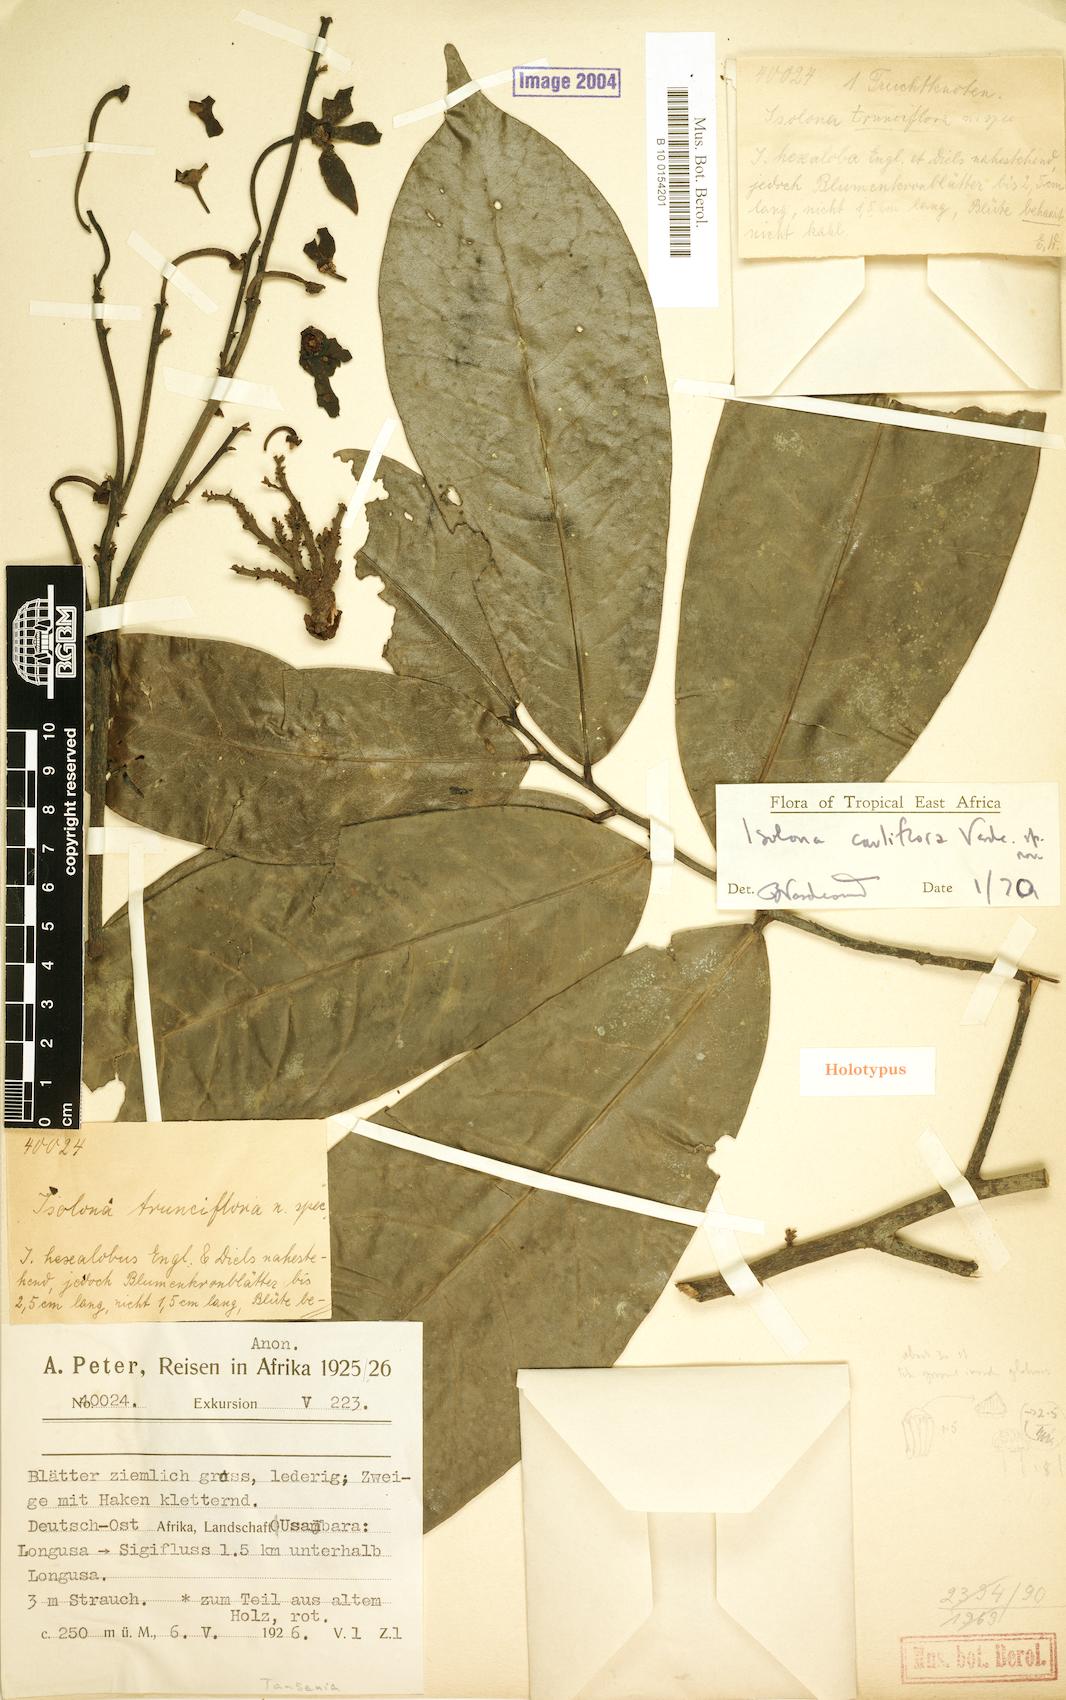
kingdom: Plantae
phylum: Tracheophyta
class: Magnoliopsida
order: Magnoliales
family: Annonaceae
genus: Isolona
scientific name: Isolona cauliflora
